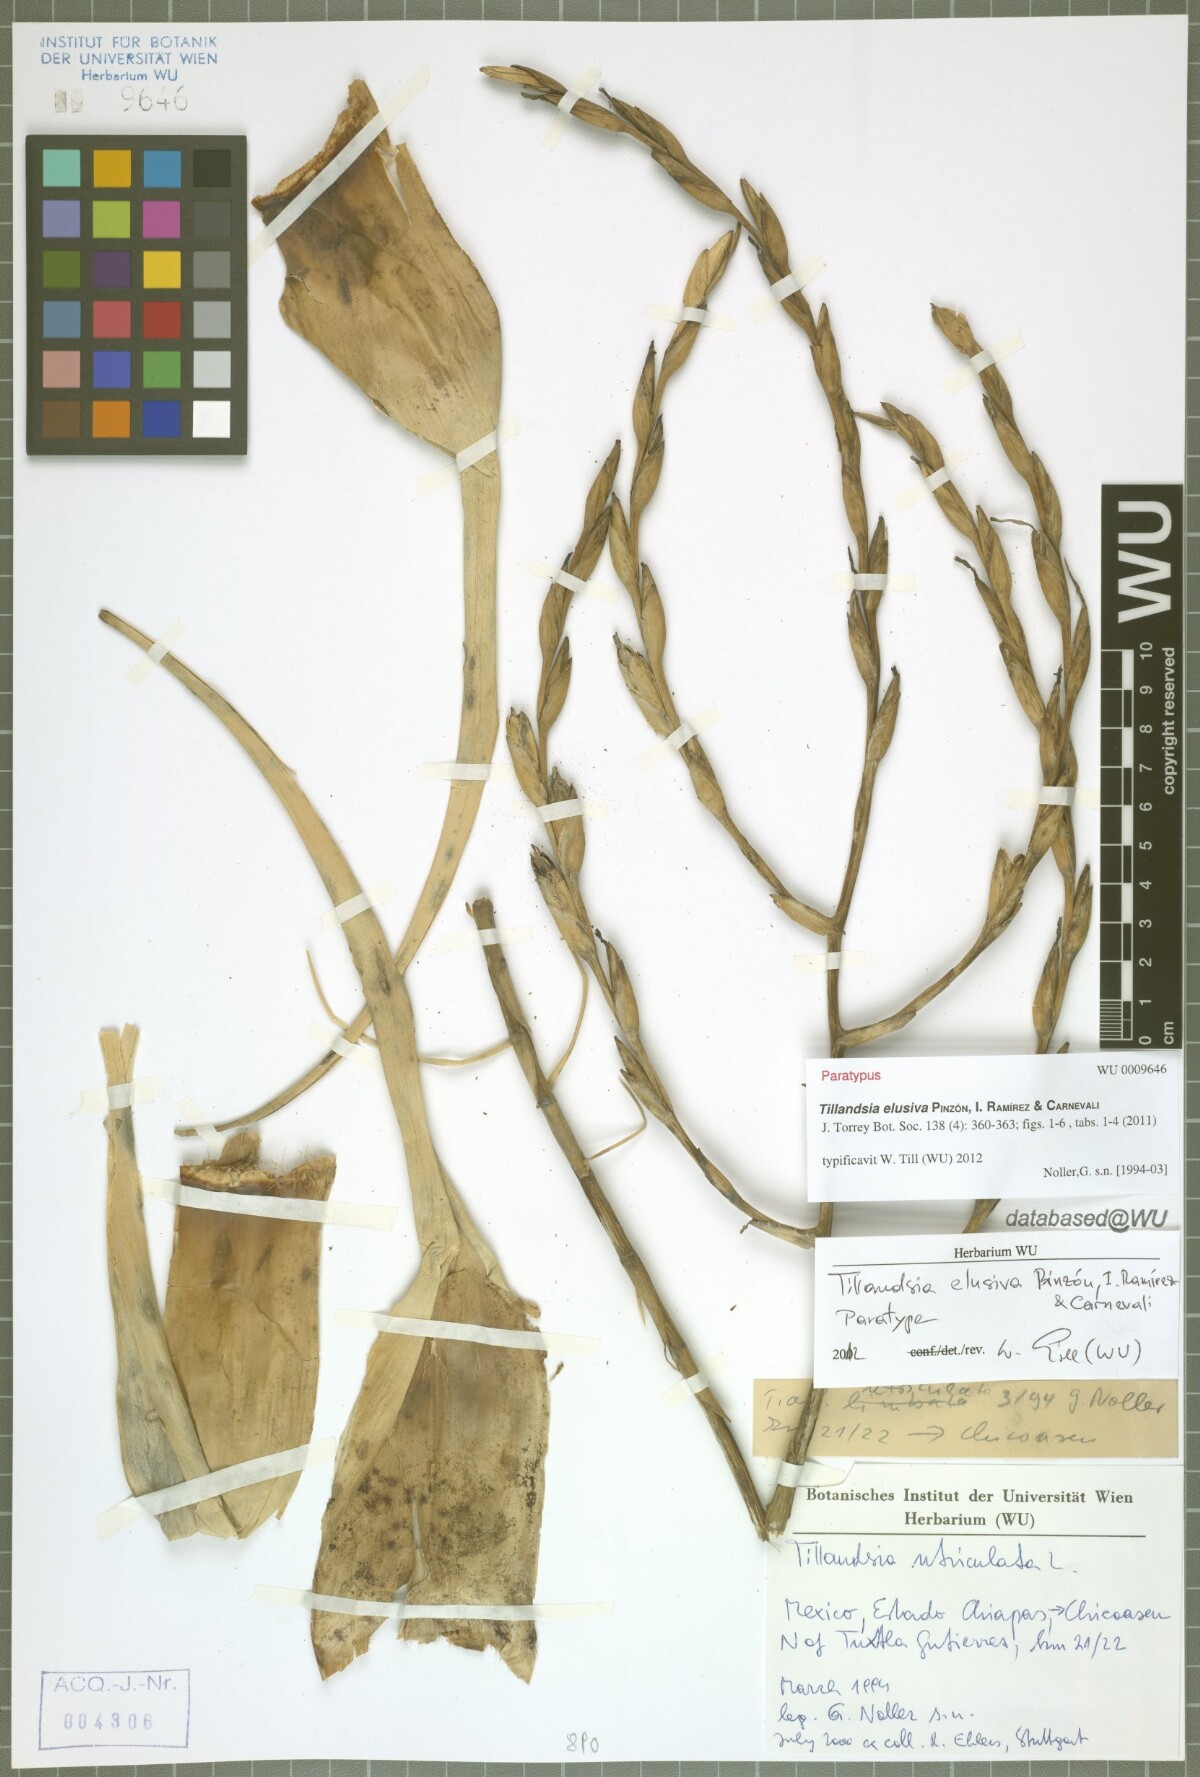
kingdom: Plantae
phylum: Tracheophyta
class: Liliopsida
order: Poales
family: Bromeliaceae
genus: Tillandsia
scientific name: Tillandsia elusiva
